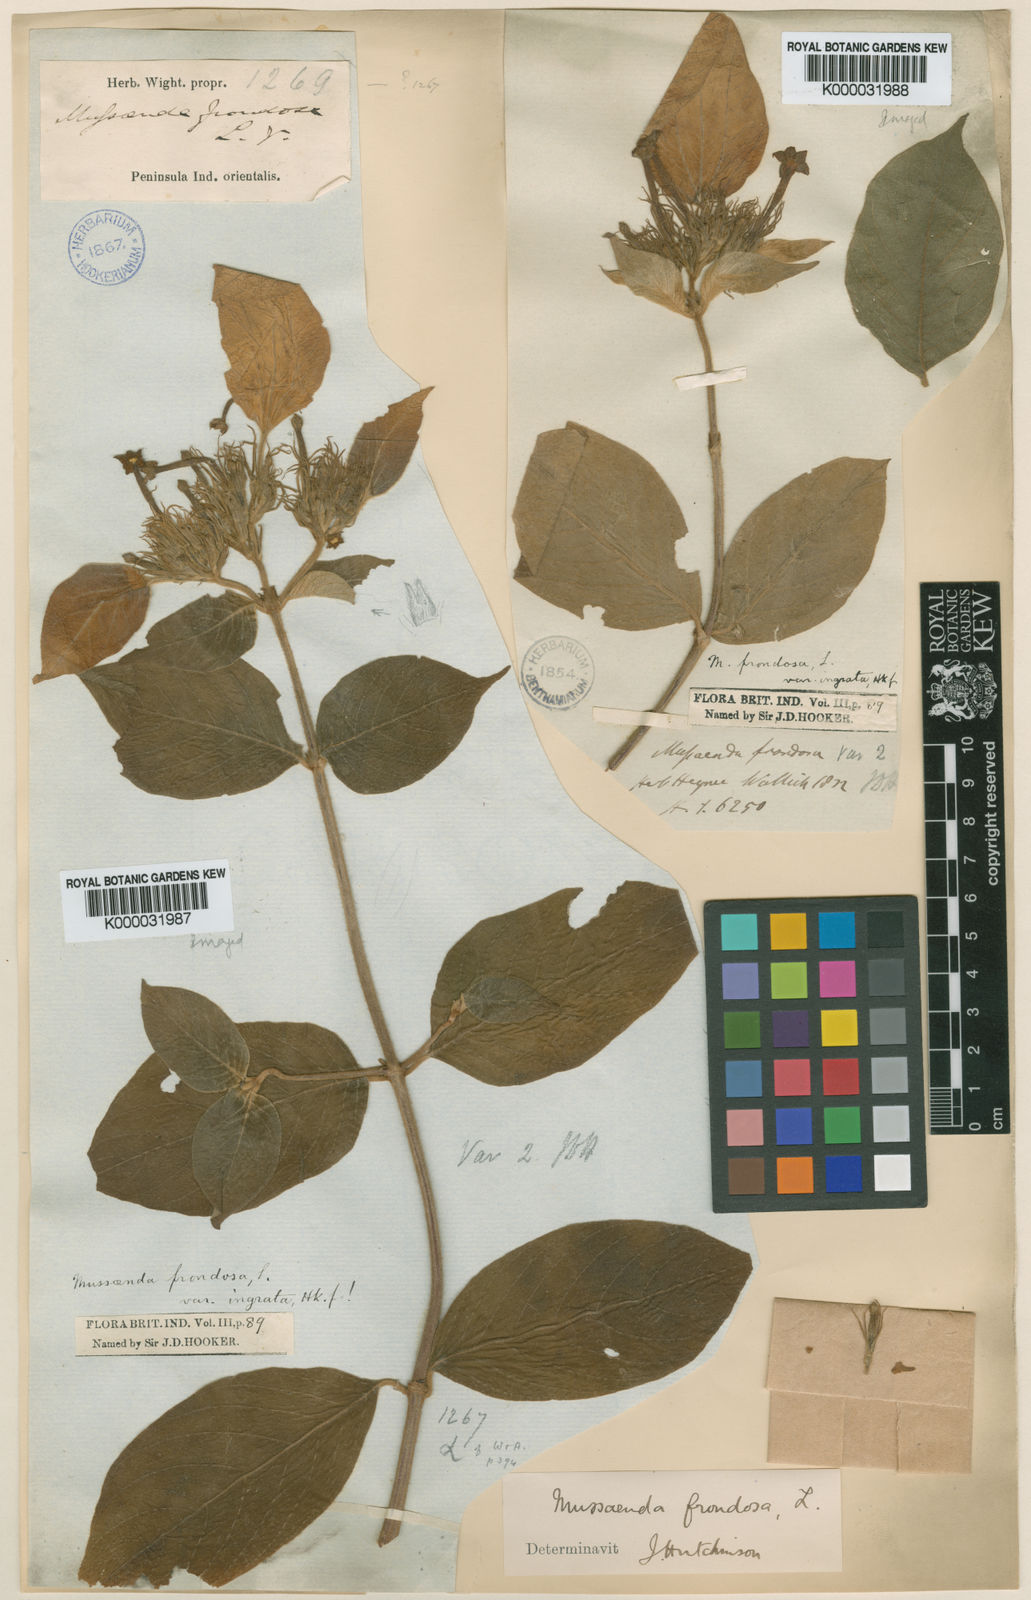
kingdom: Plantae
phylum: Tracheophyta
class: Magnoliopsida
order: Gentianales
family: Rubiaceae
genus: Mussaenda
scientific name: Mussaenda frondosa
